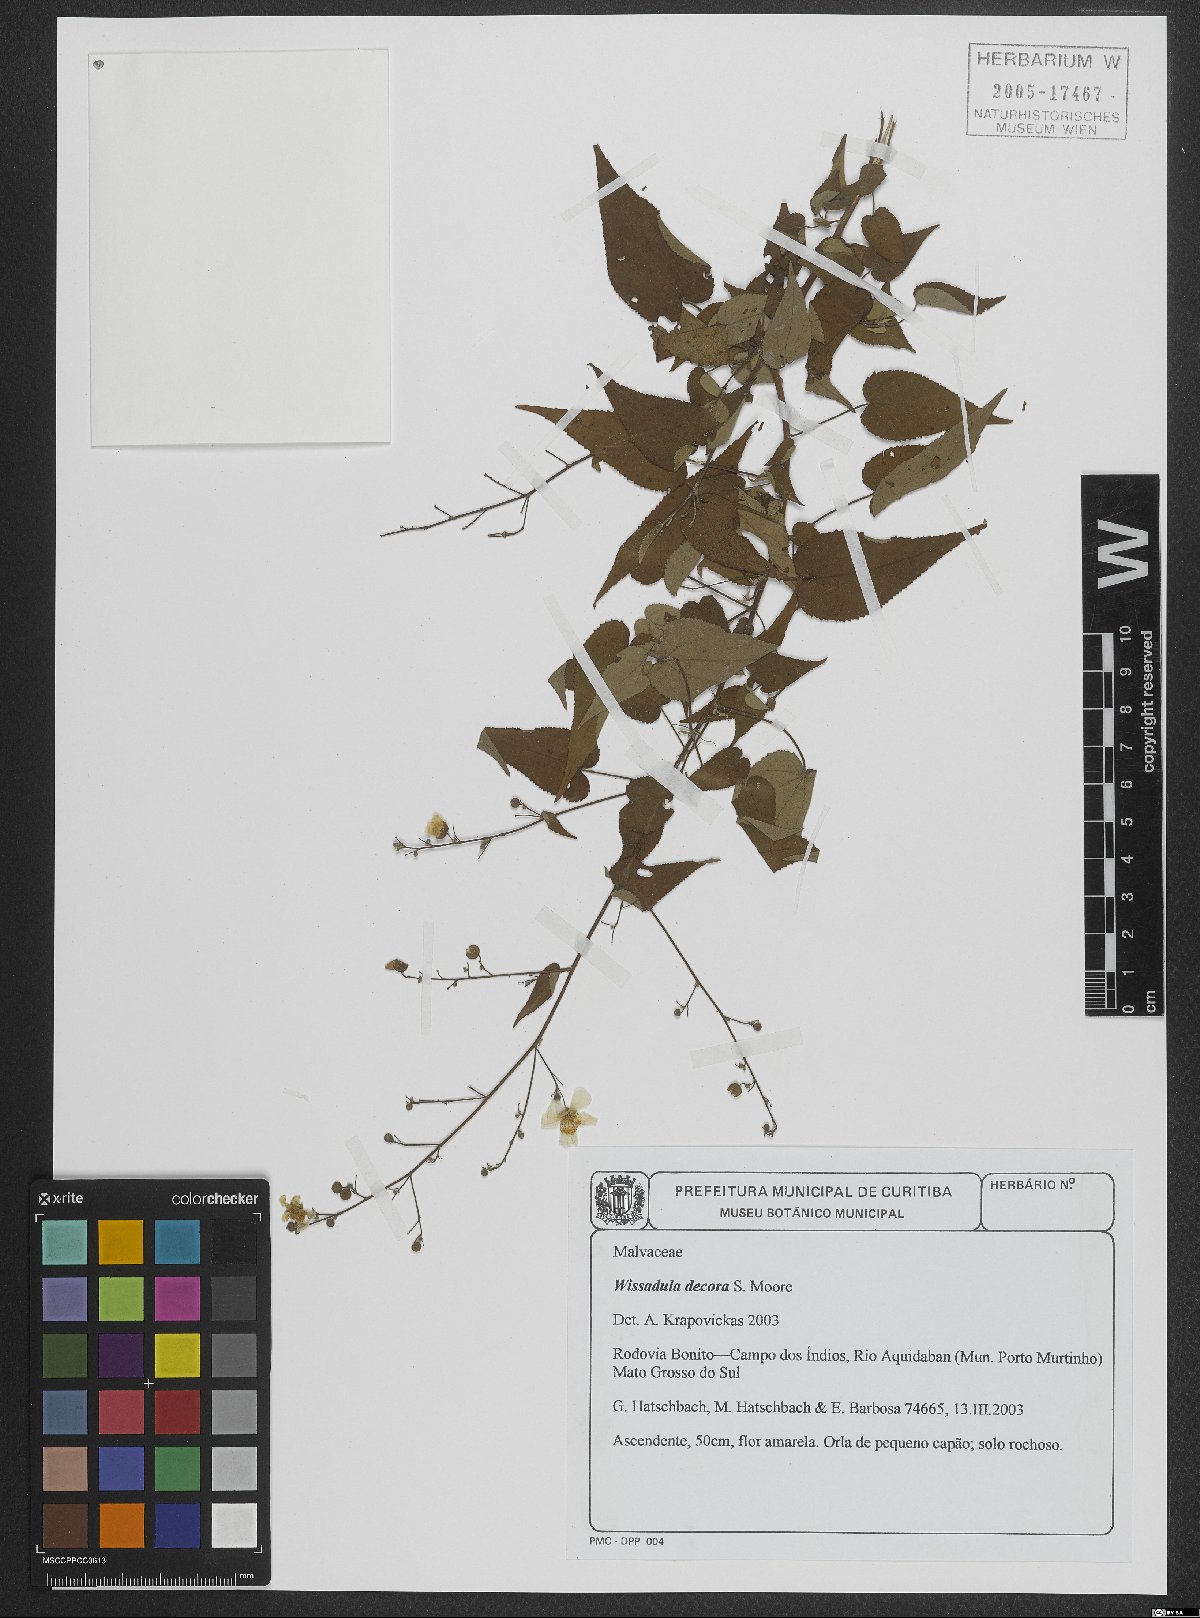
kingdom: Plantae
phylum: Tracheophyta
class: Magnoliopsida
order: Malvales
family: Malvaceae
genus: Wissadula
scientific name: Wissadula decora
